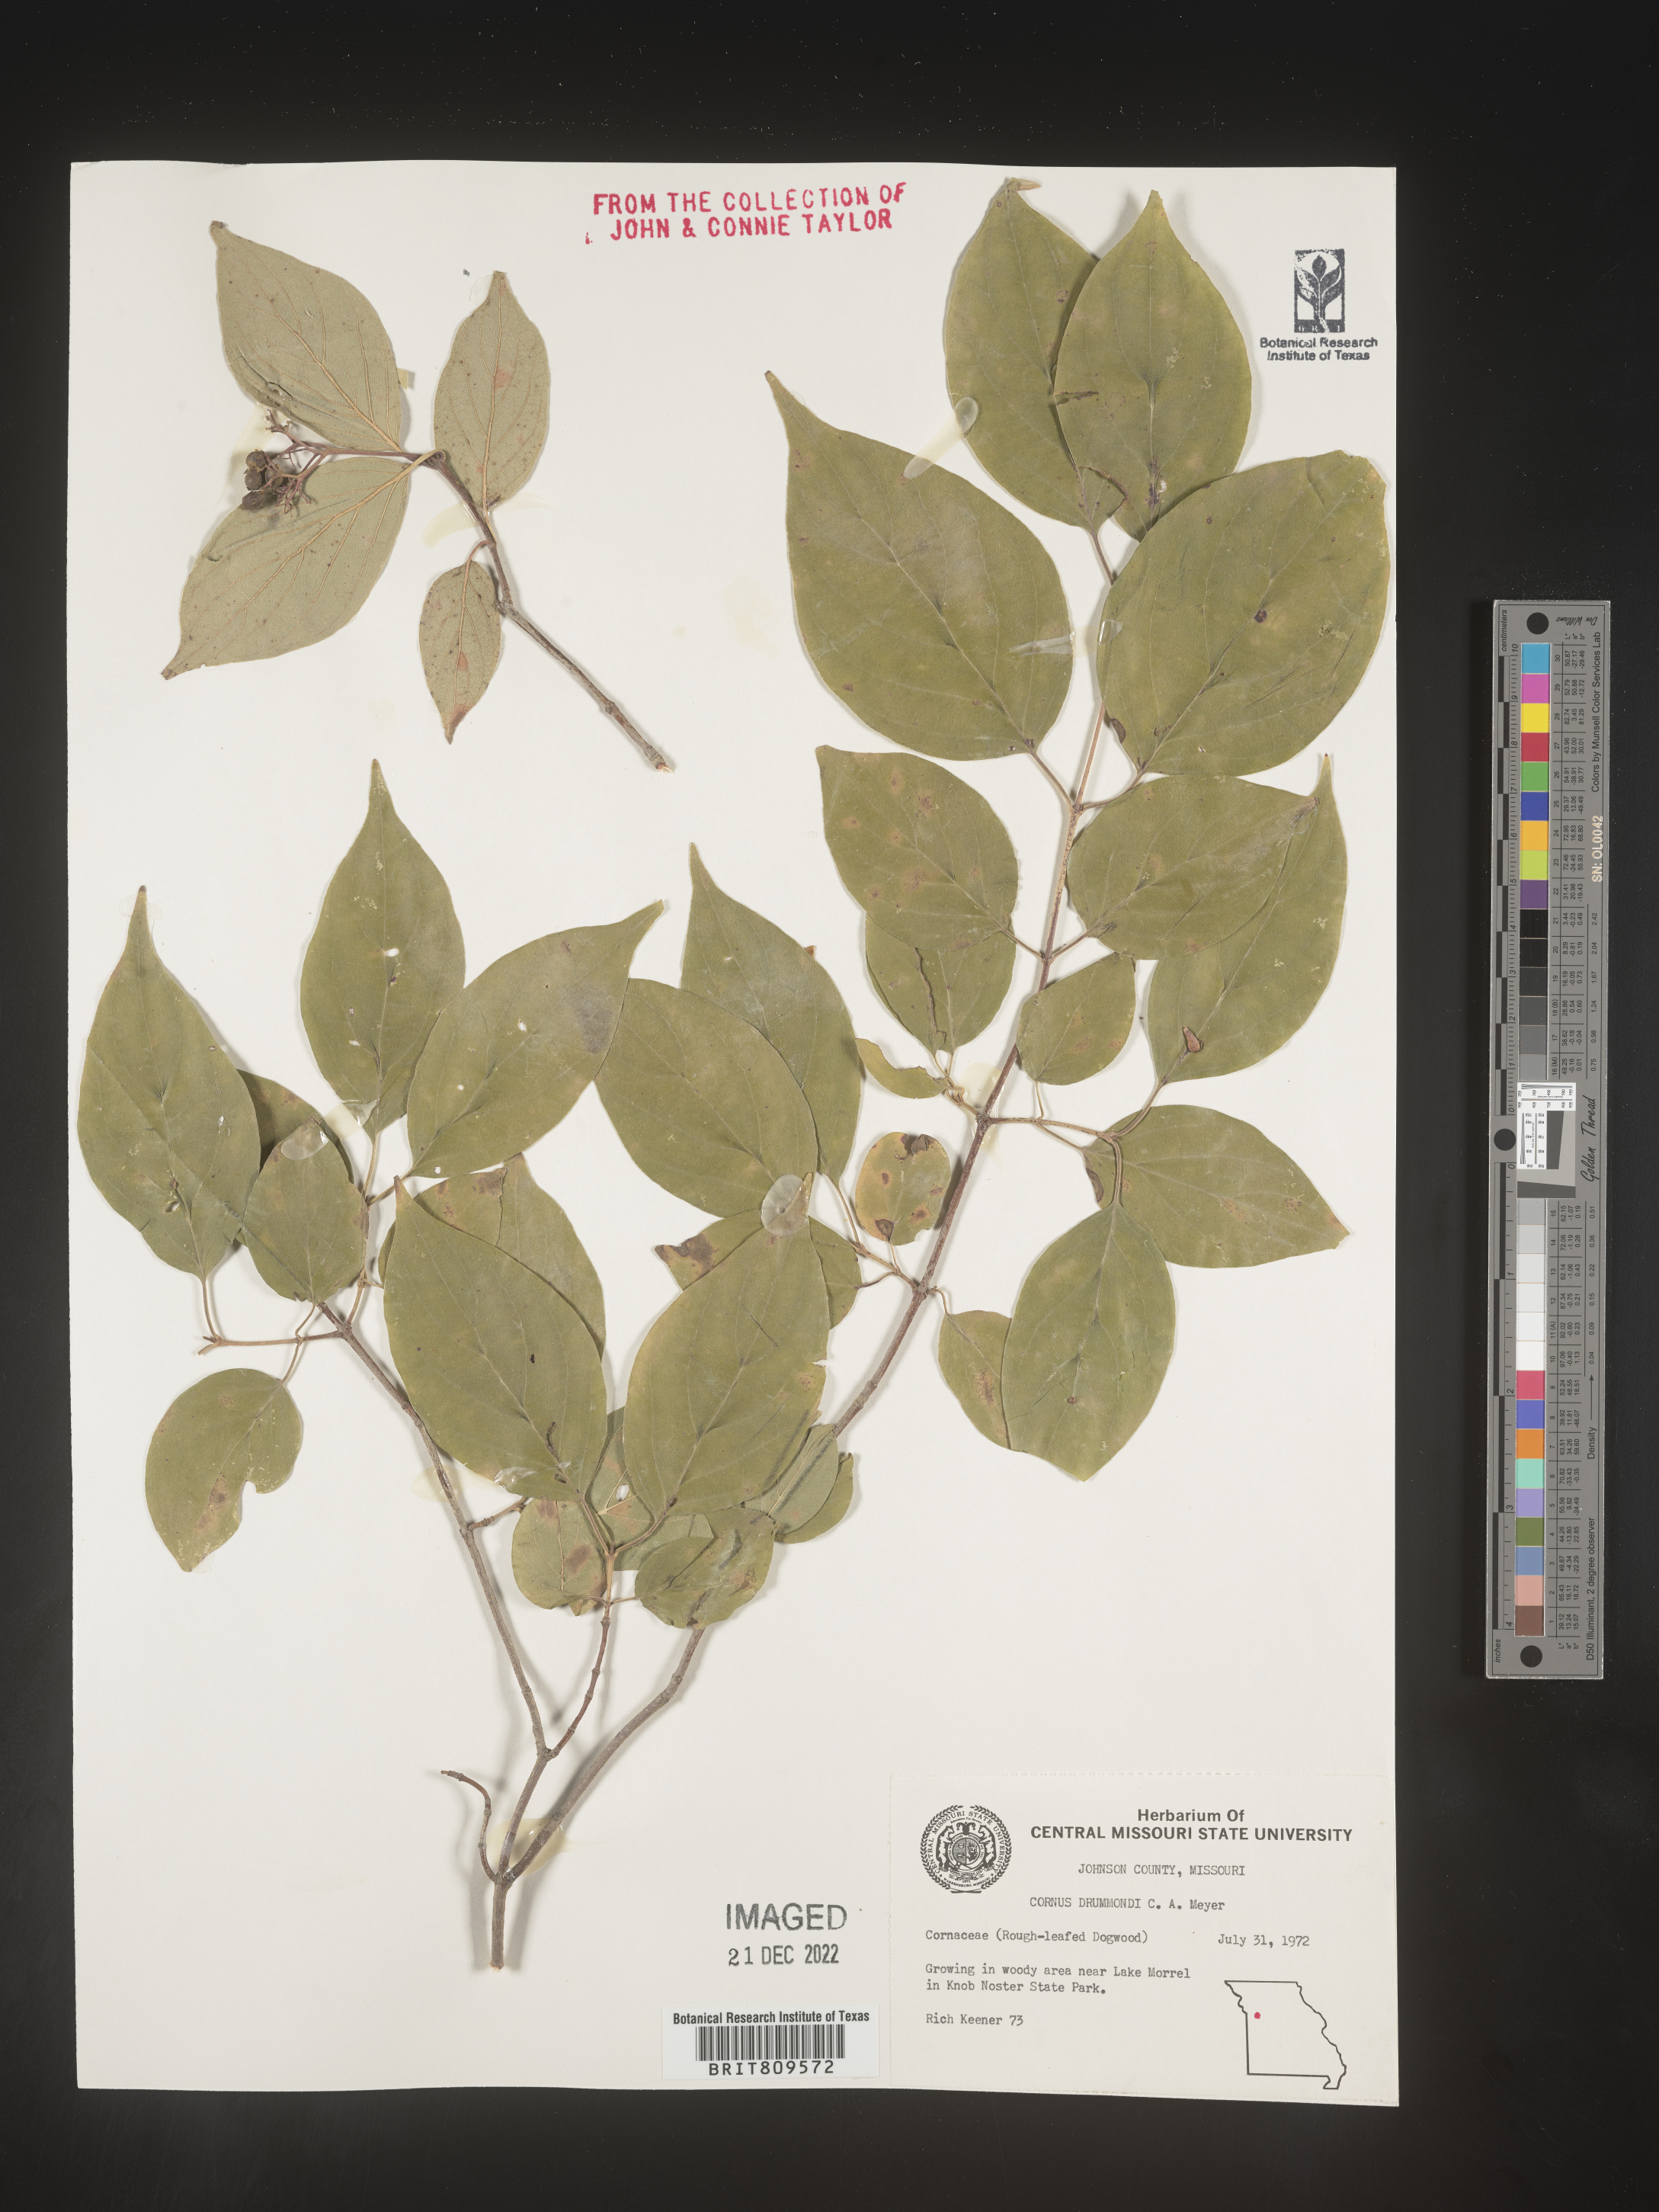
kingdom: Plantae
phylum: Tracheophyta
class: Magnoliopsida
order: Cornales
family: Cornaceae
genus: Cornus
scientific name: Cornus drummondii
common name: Rough-leaf dogwood
